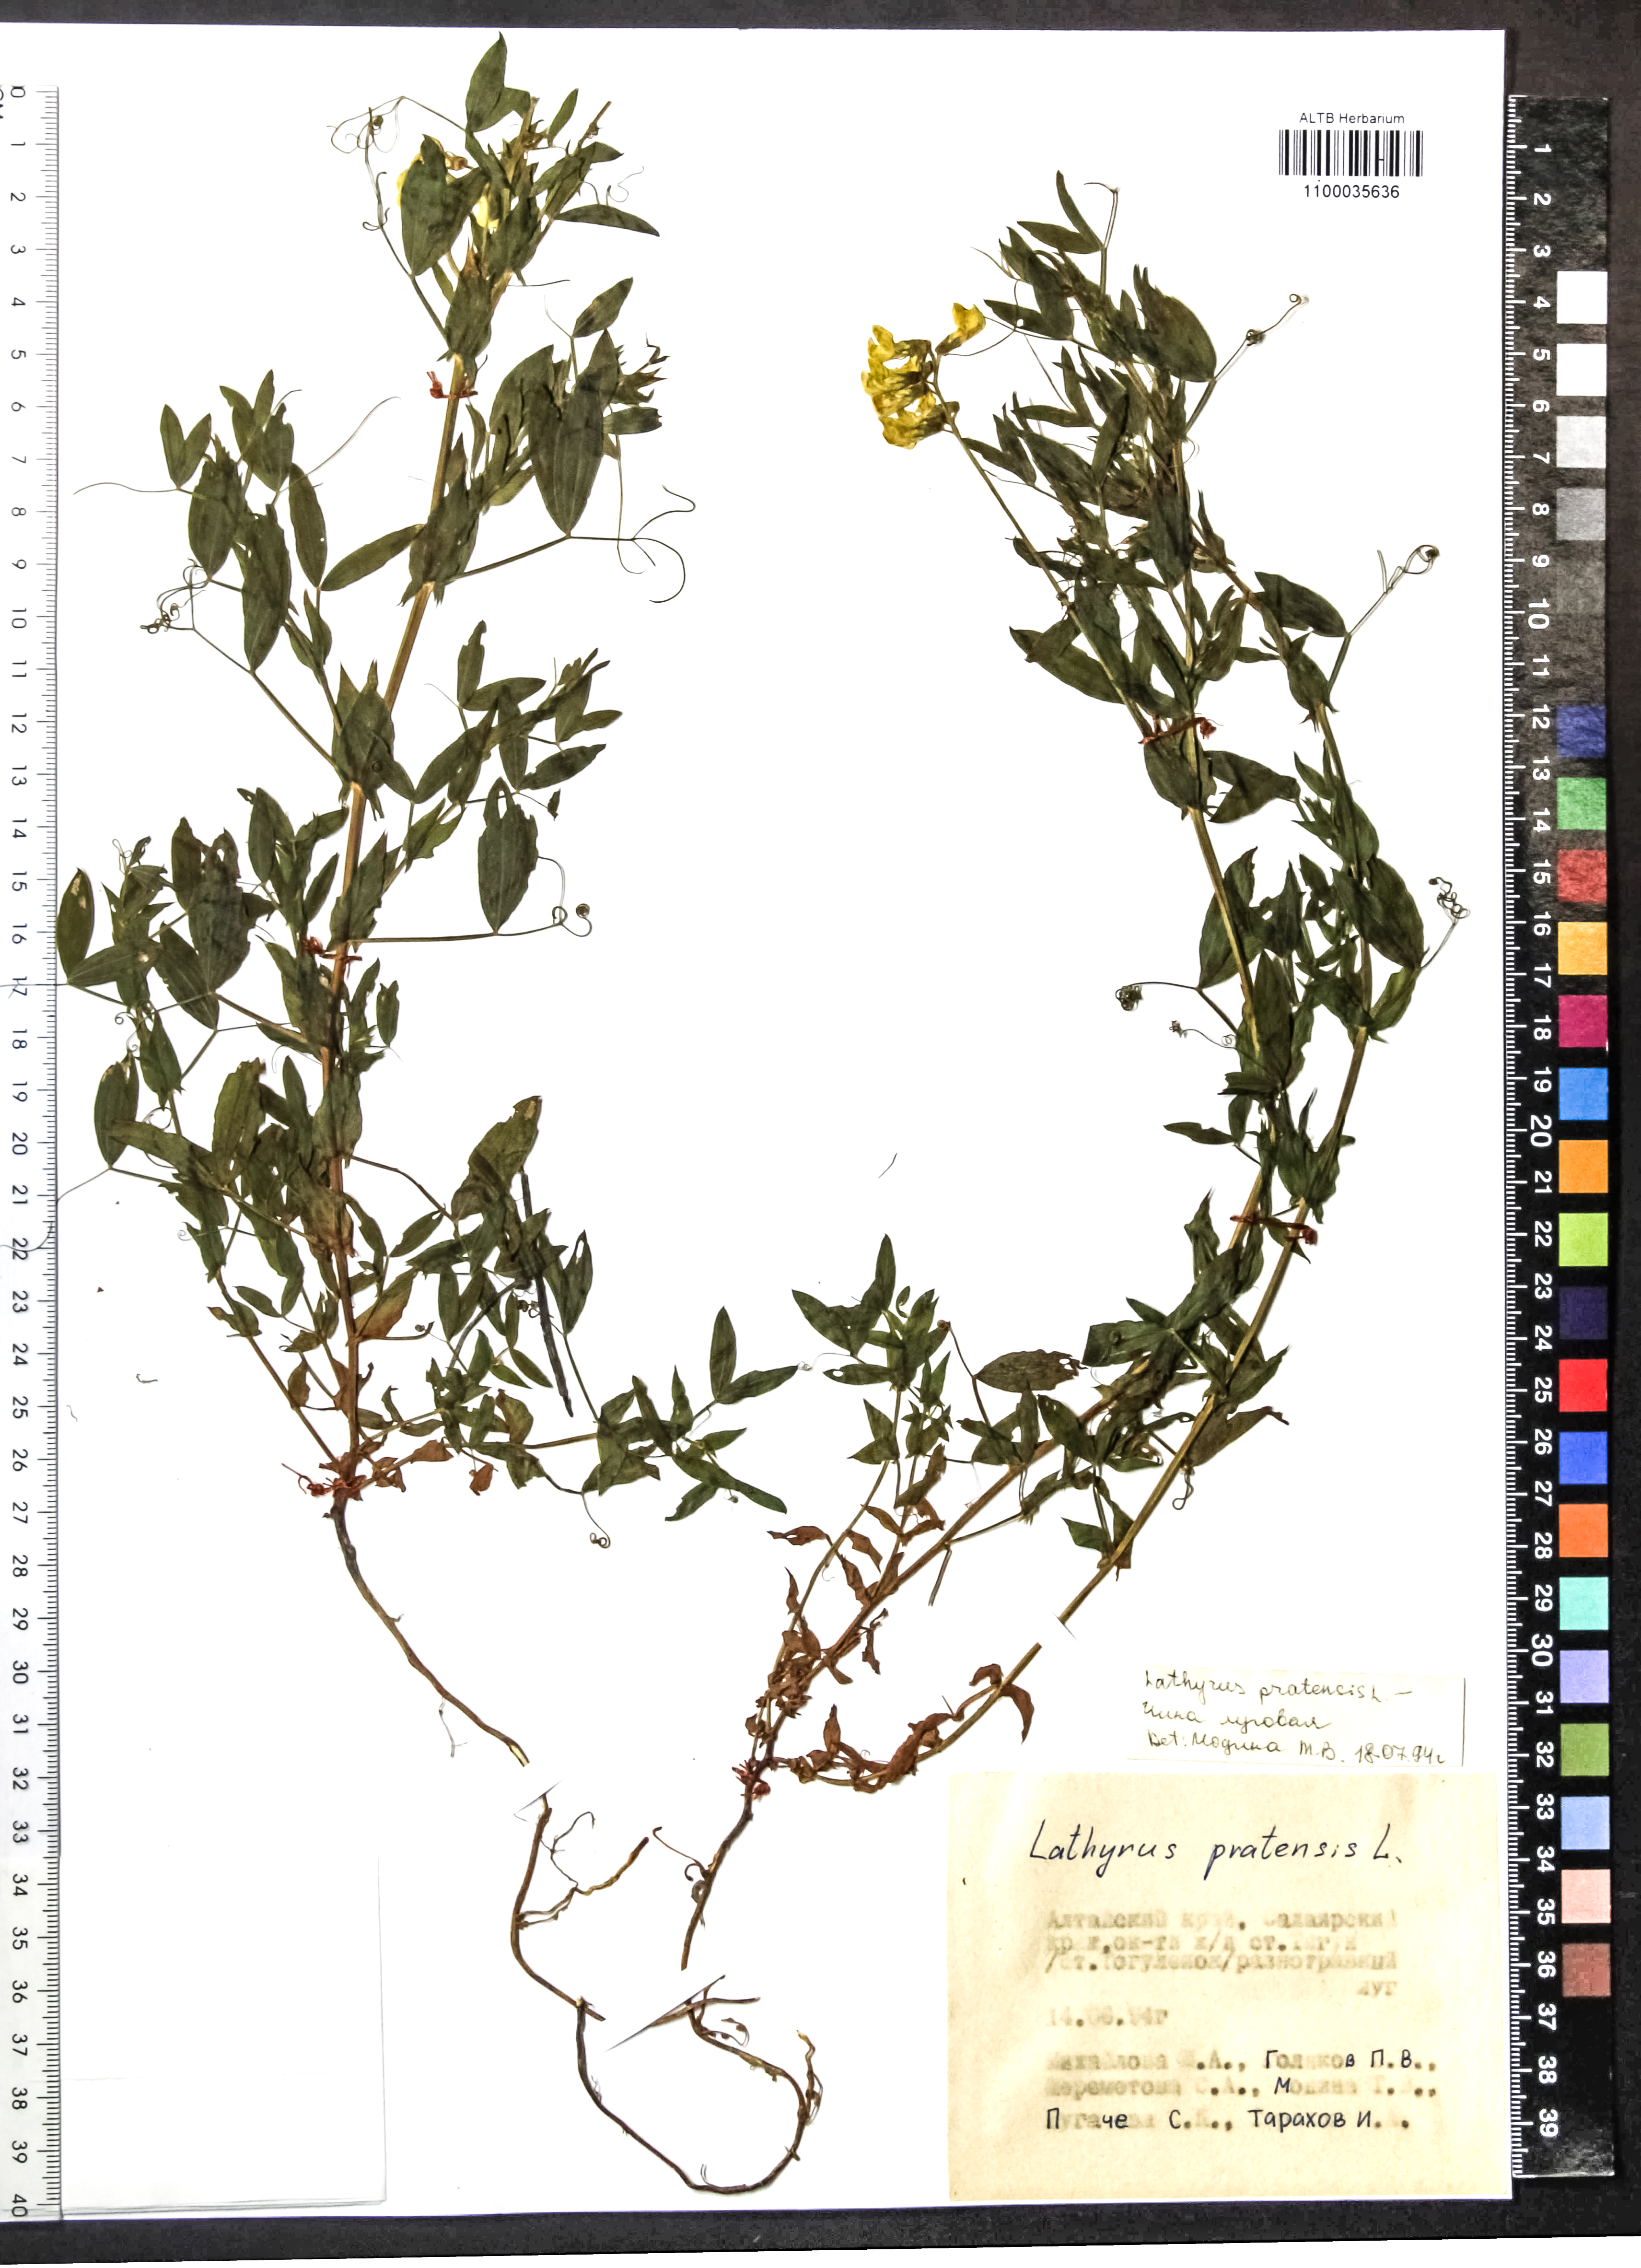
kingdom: Plantae
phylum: Tracheophyta
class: Magnoliopsida
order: Fabales
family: Fabaceae
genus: Lathyrus
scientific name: Lathyrus pratensis
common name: Meadow vetchling
